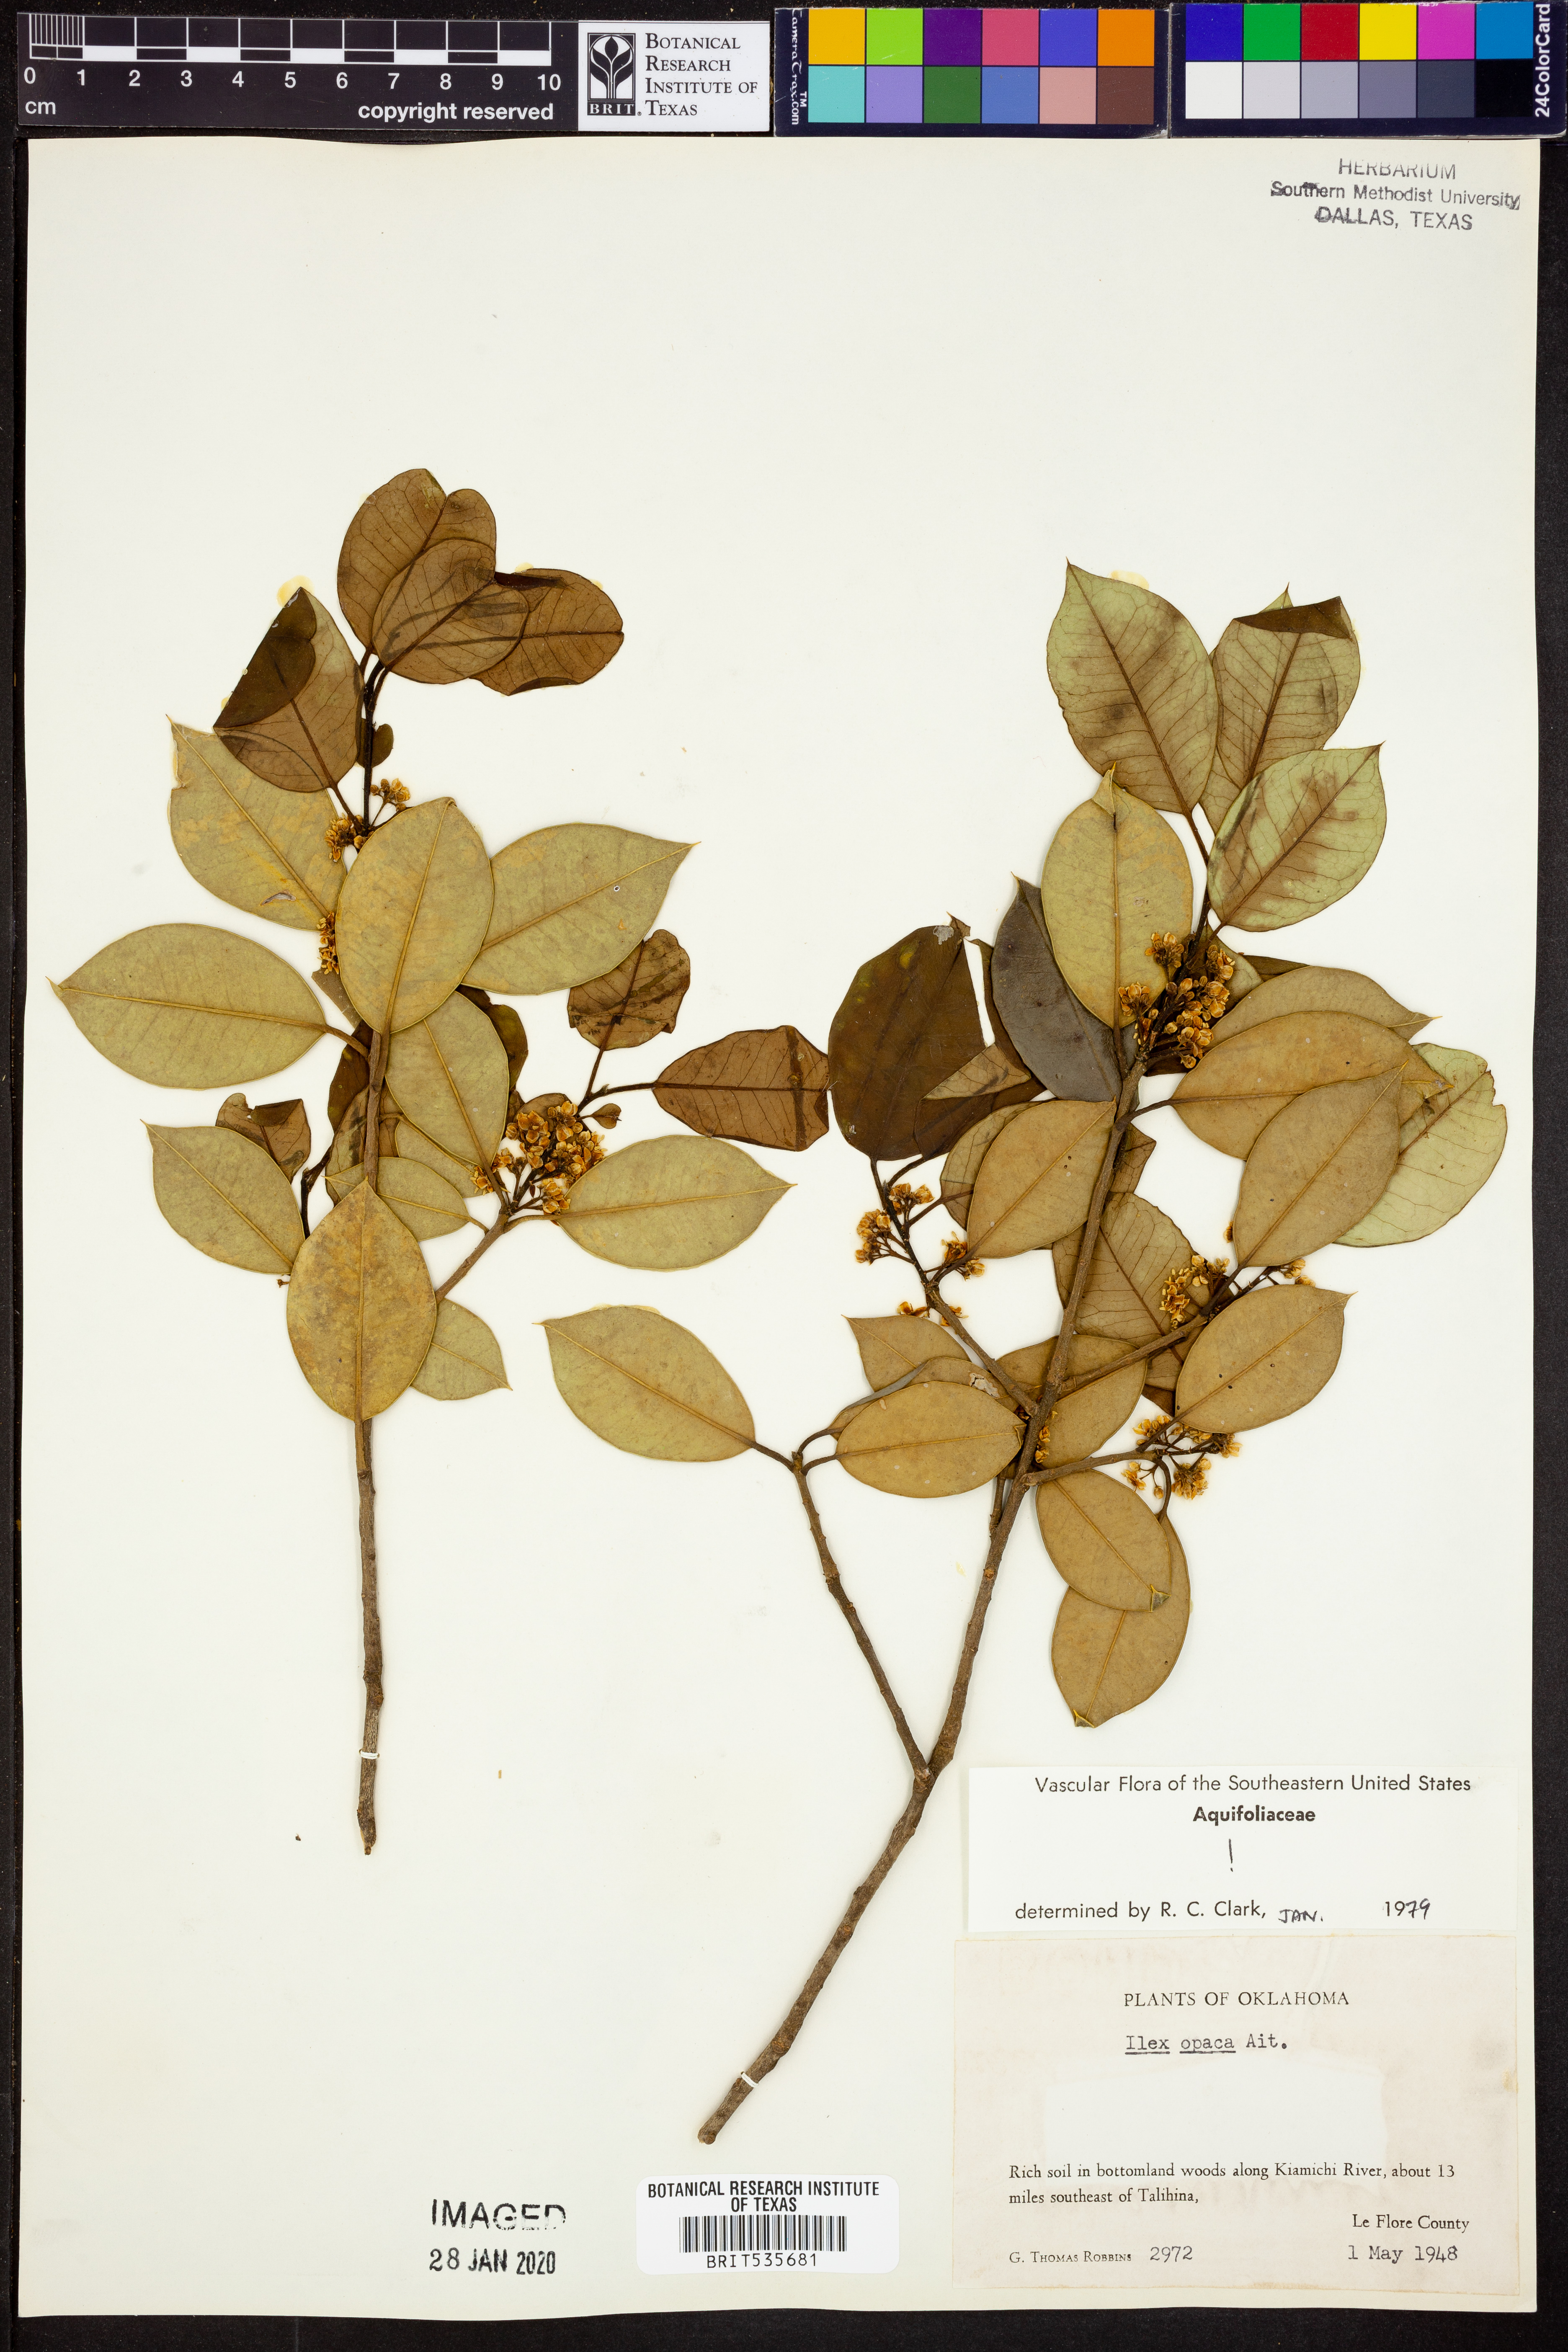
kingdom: Plantae
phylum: Tracheophyta
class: Magnoliopsida
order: Aquifoliales
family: Aquifoliaceae
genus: Ilex
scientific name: Ilex opaca
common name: American holly
